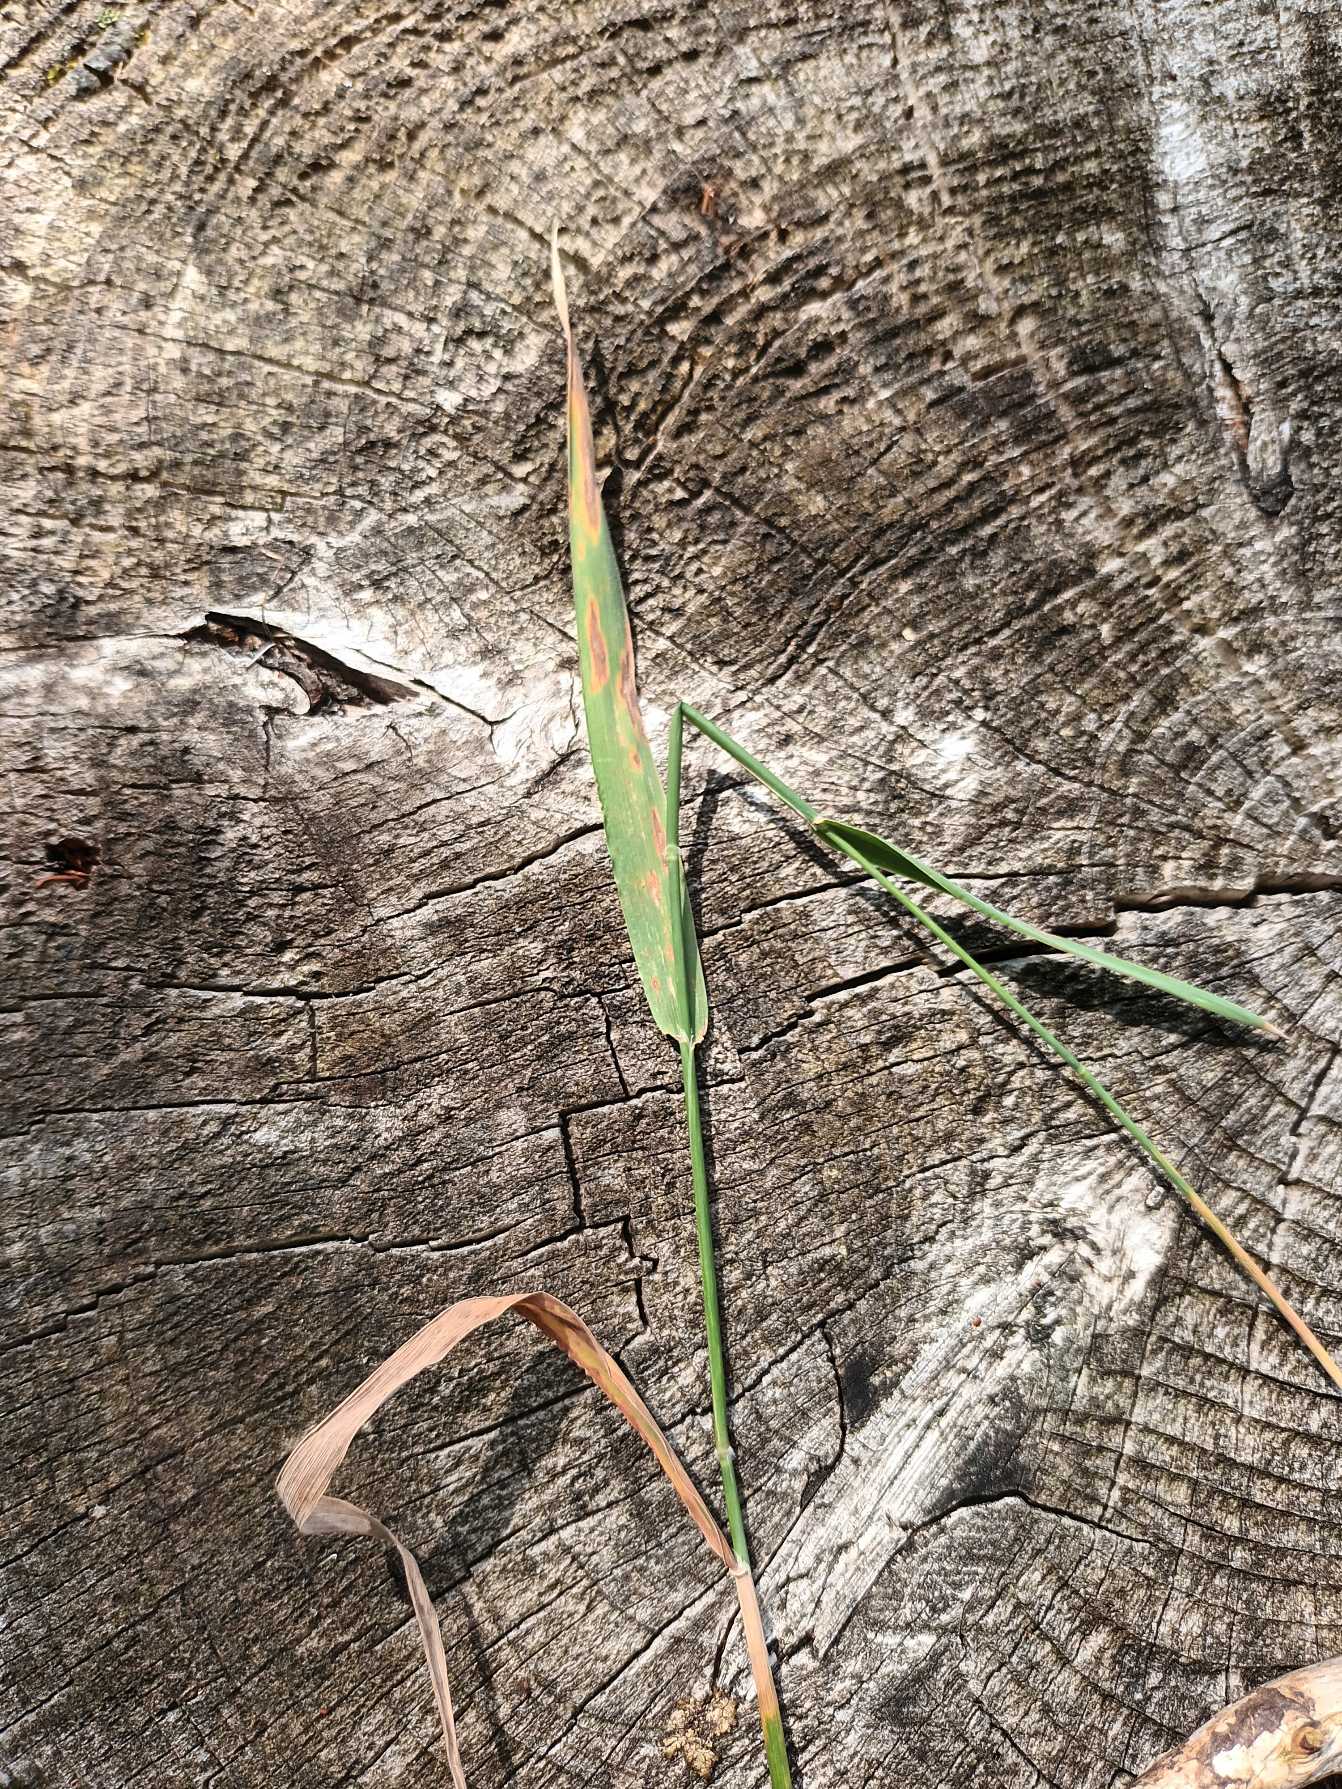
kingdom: Plantae
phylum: Tracheophyta
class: Liliopsida
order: Poales
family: Poaceae
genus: Holcus
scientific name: Holcus mollis
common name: Krybende hestegræs
